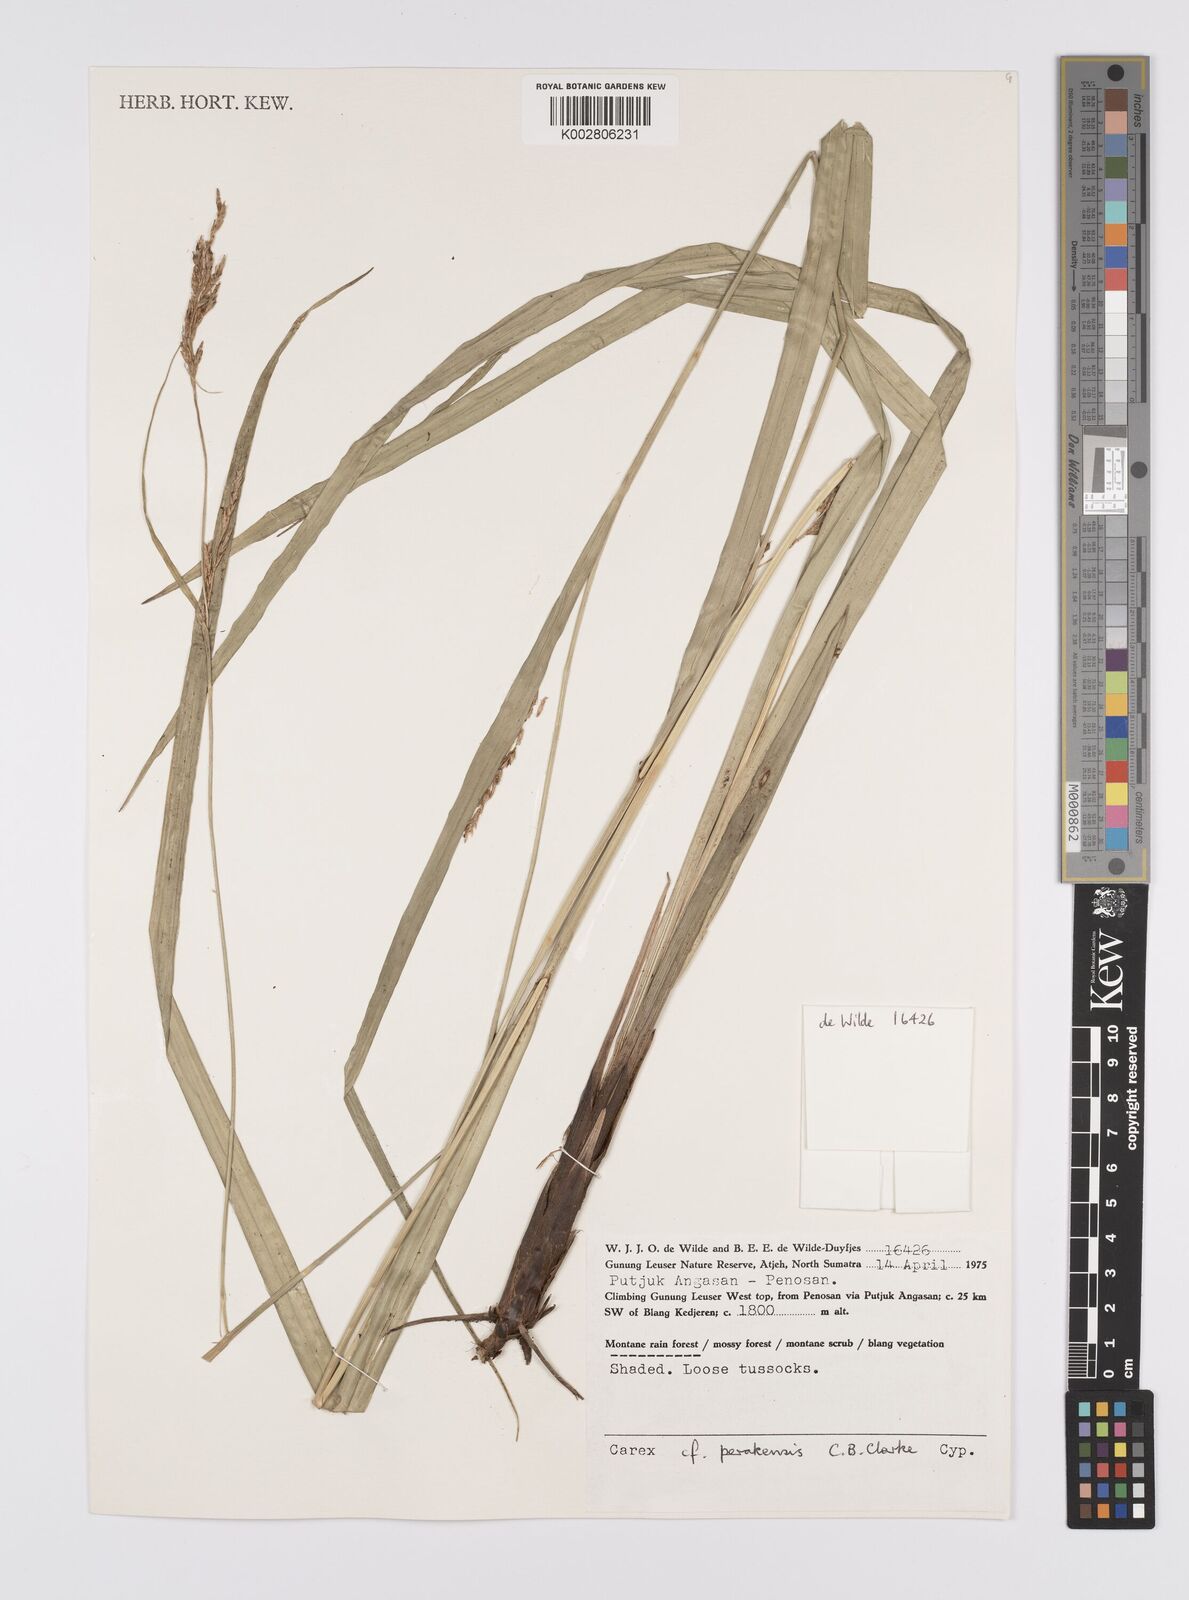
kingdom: Plantae
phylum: Tracheophyta
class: Liliopsida
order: Poales
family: Cyperaceae
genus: Carex
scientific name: Carex perakensis
